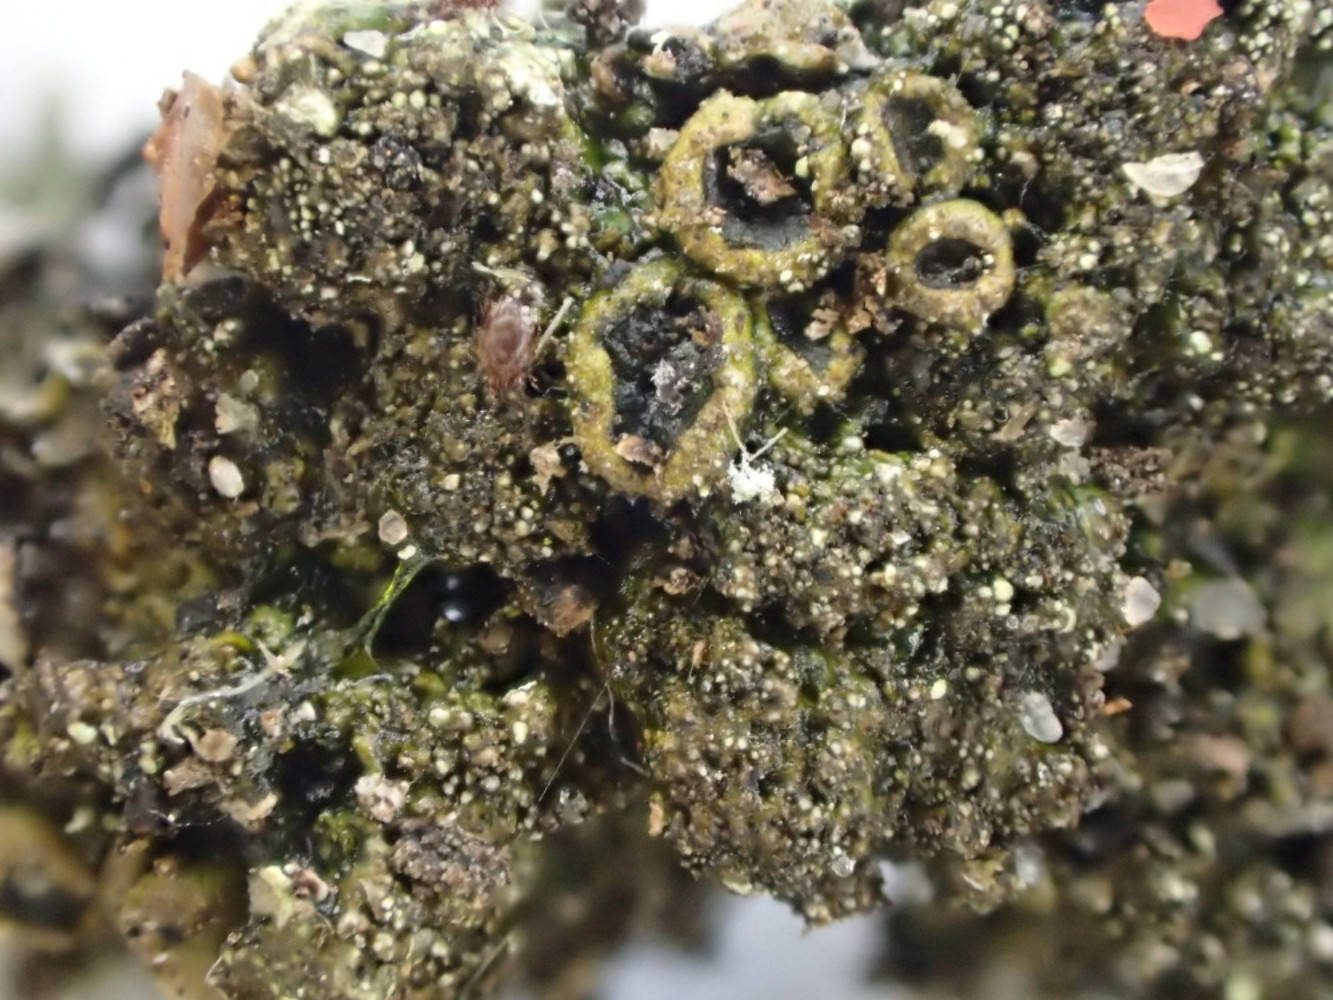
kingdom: Fungi
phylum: Ascomycota
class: Lecanoromycetes
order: Lecanorales
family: Parmeliaceae
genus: Melanohalea
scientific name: Melanohalea exasperata
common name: vortet skållav
